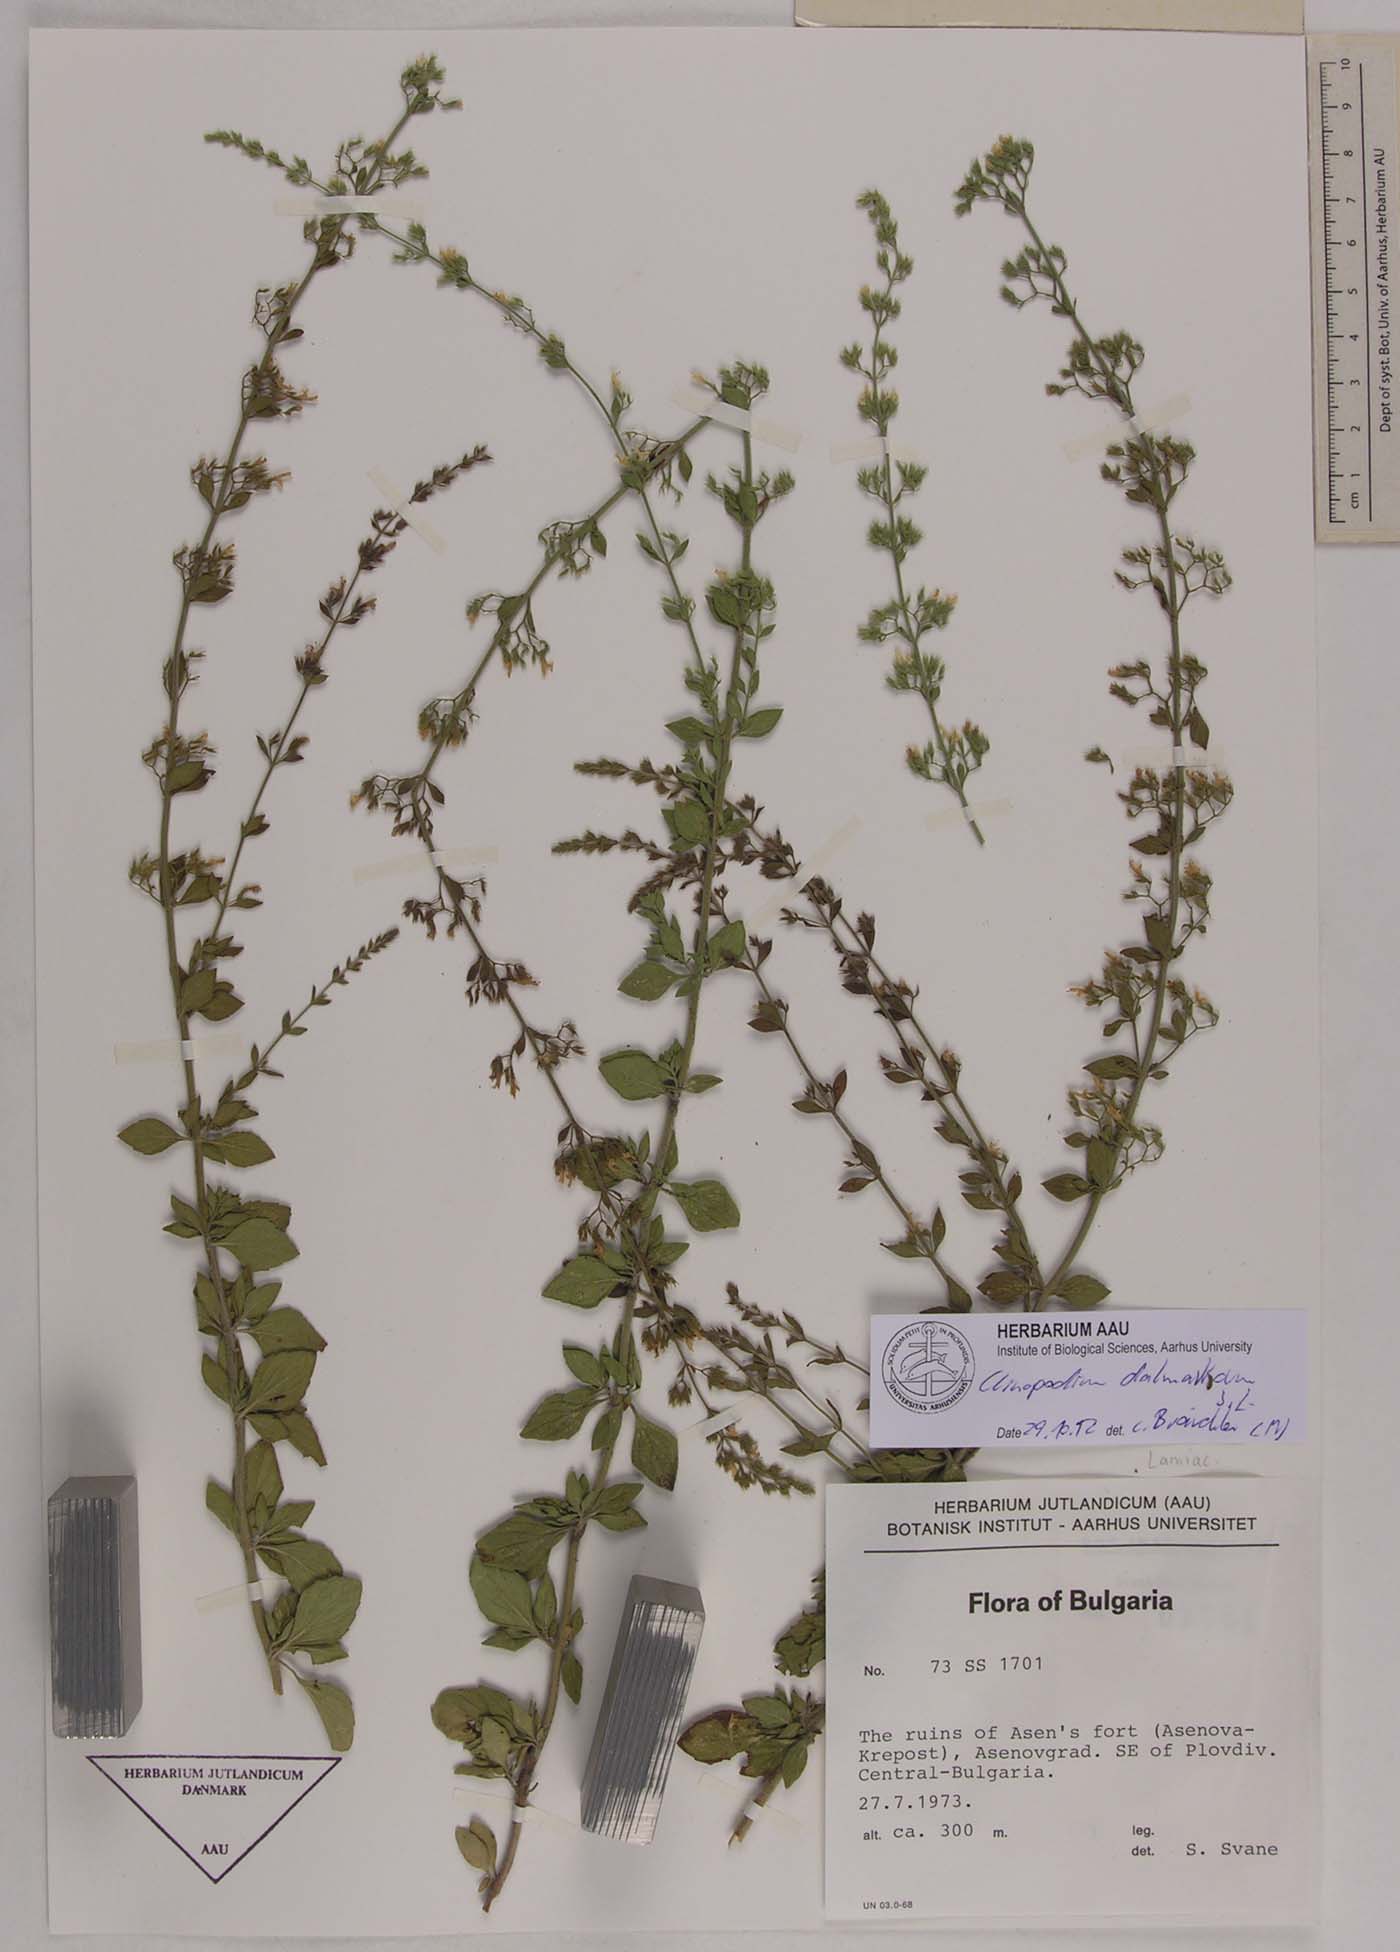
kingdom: Plantae
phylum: Tracheophyta
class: Magnoliopsida
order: Lamiales
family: Lamiaceae
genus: Clinopodium
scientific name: Clinopodium dalmaticum
